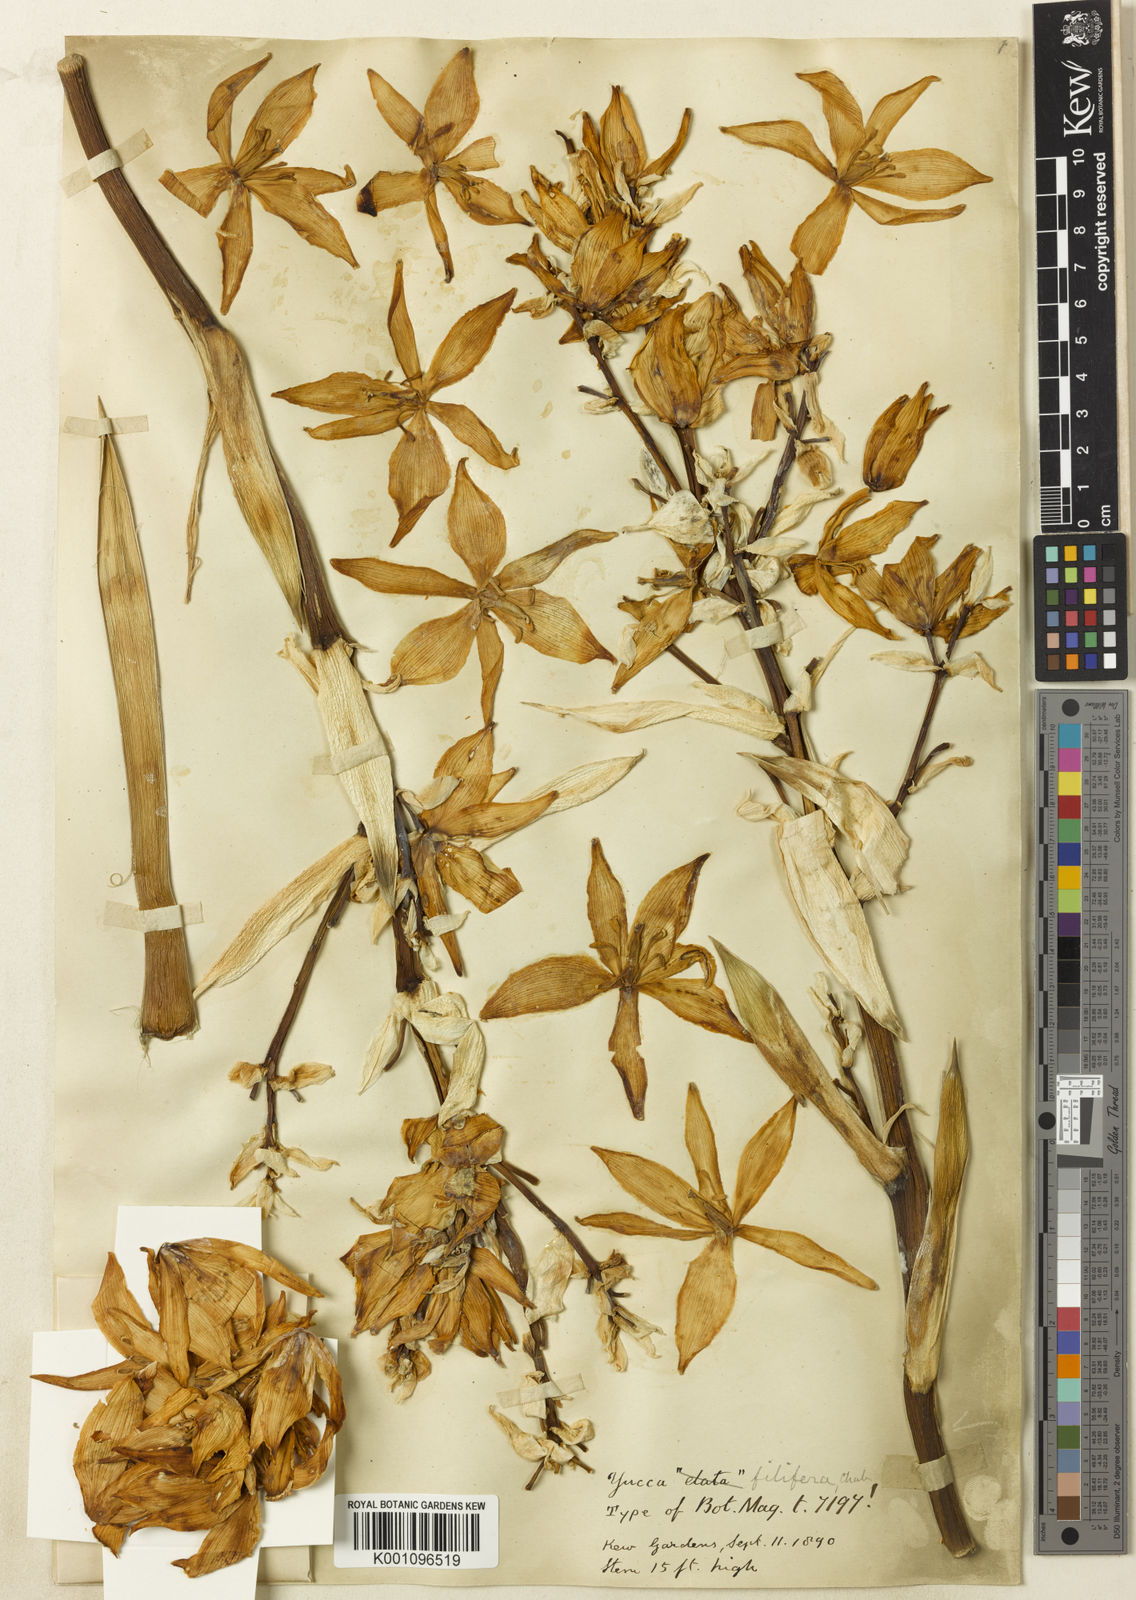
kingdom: Plantae
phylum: Tracheophyta
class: Liliopsida
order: Asparagales
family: Asparagaceae
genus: Yucca
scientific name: Yucca filifera
